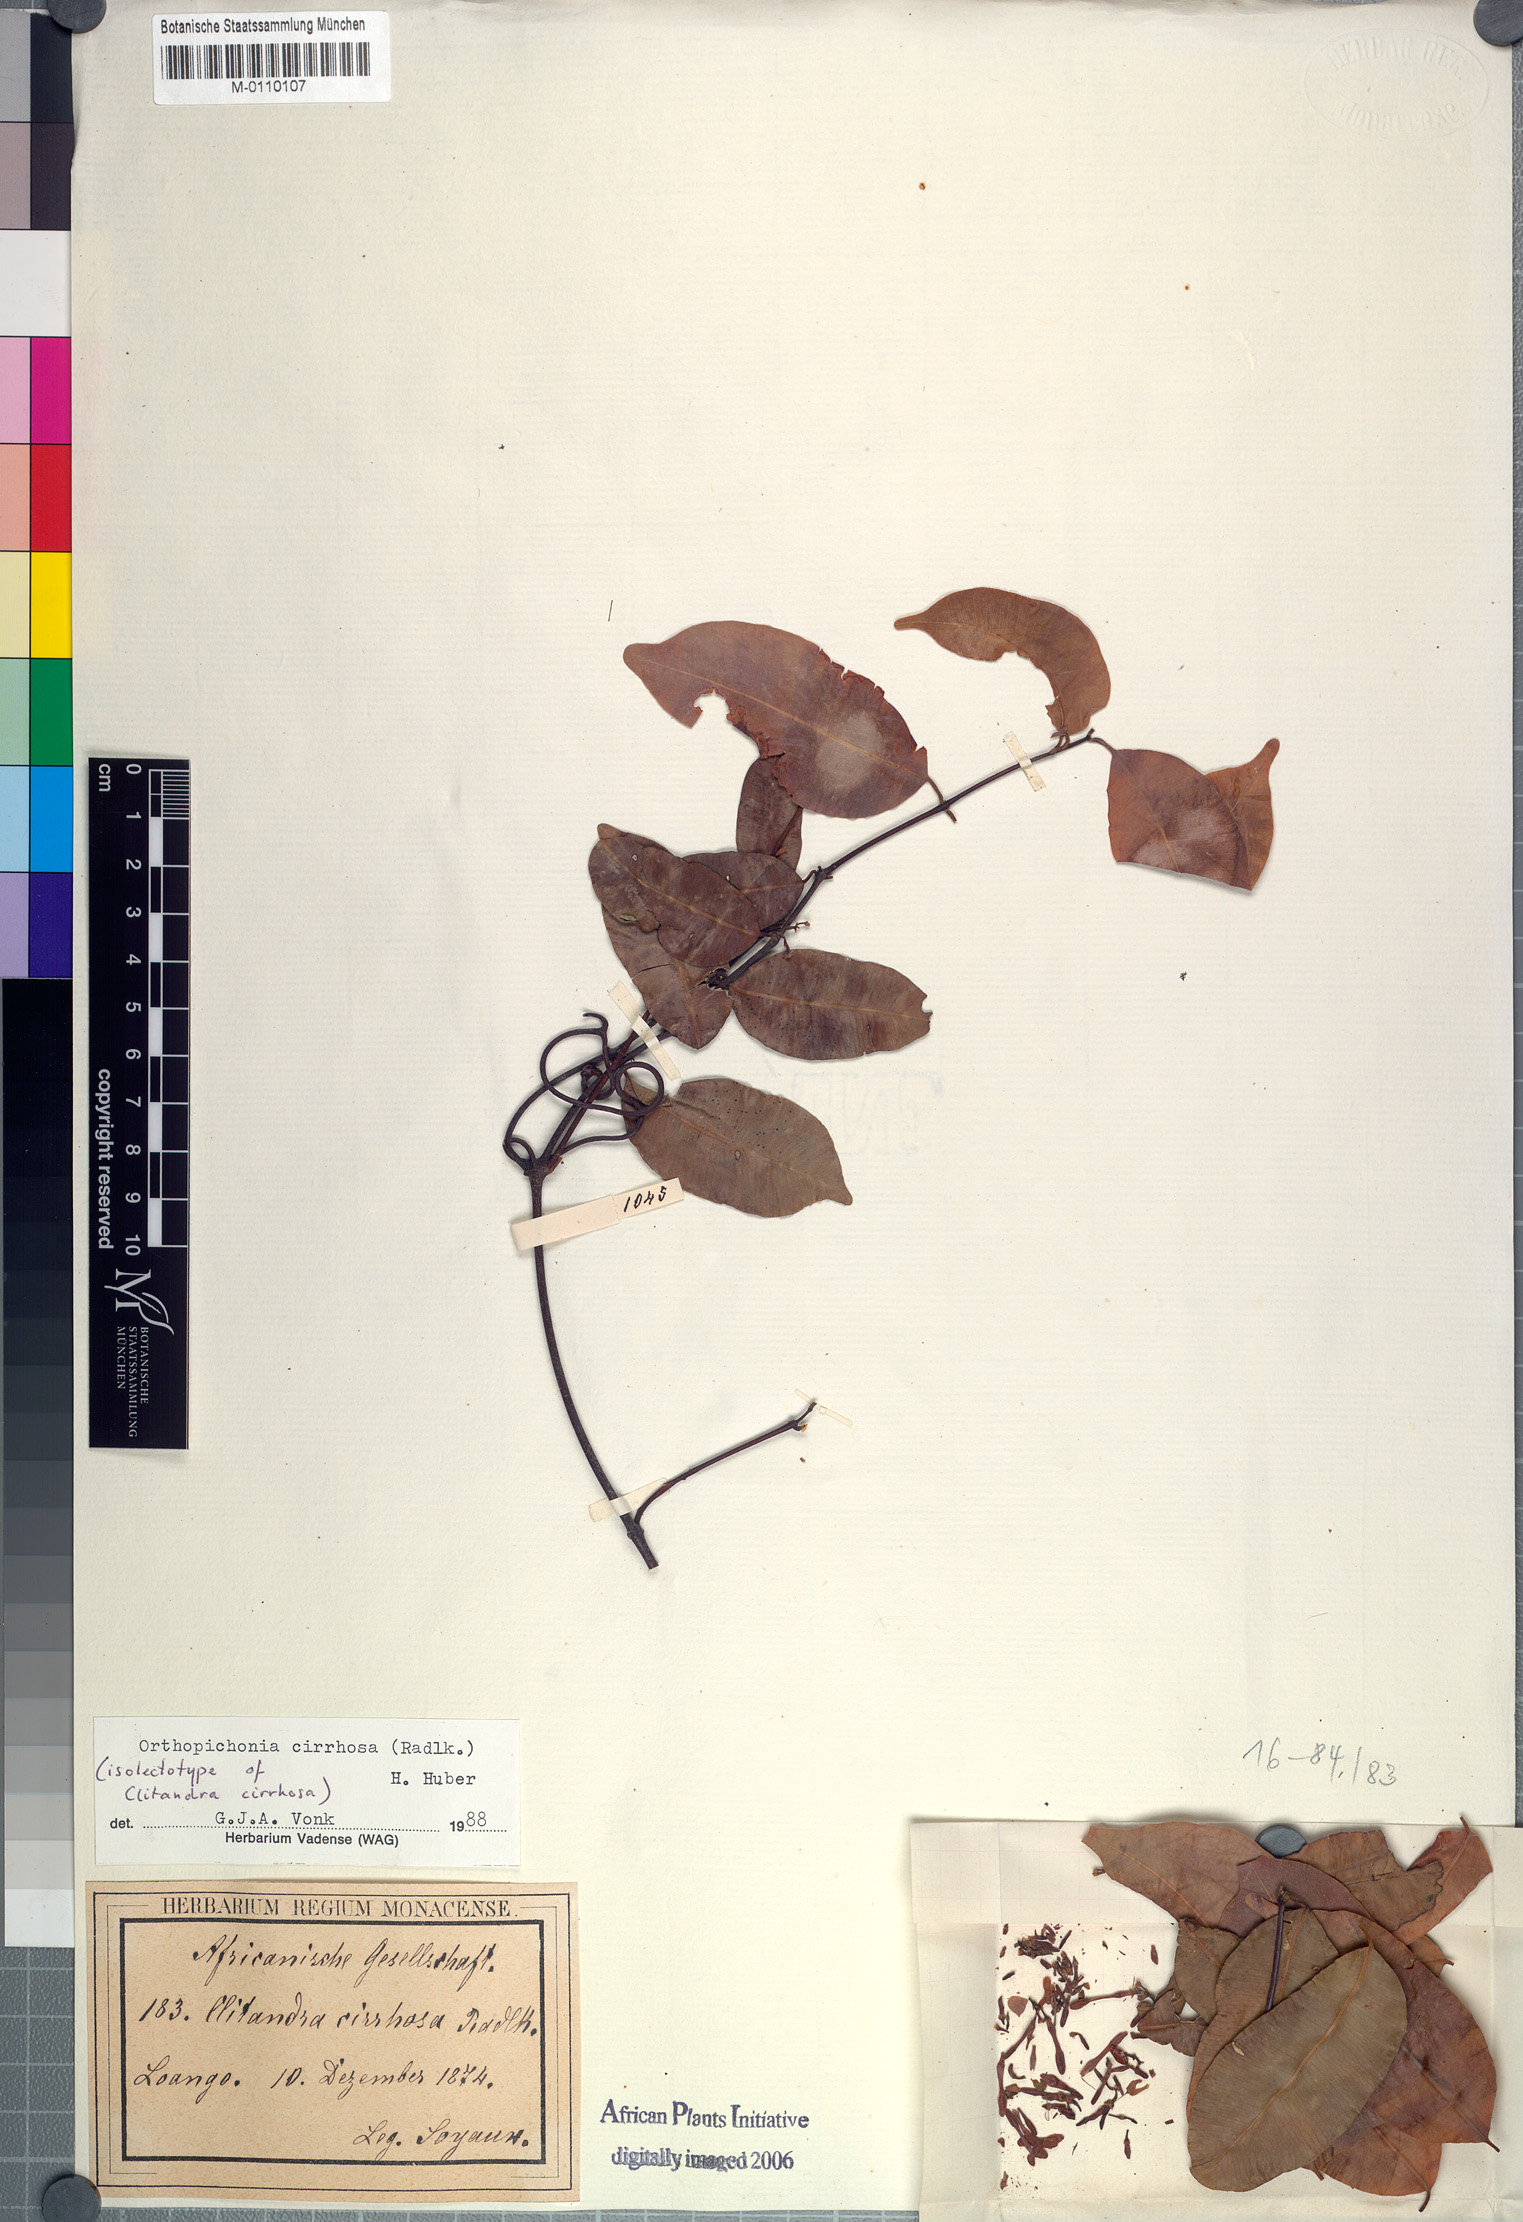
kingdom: Plantae
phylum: Tracheophyta
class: Magnoliopsida
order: Gentianales
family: Apocynaceae
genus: Orthopichonia
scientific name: Orthopichonia cirrhosa
